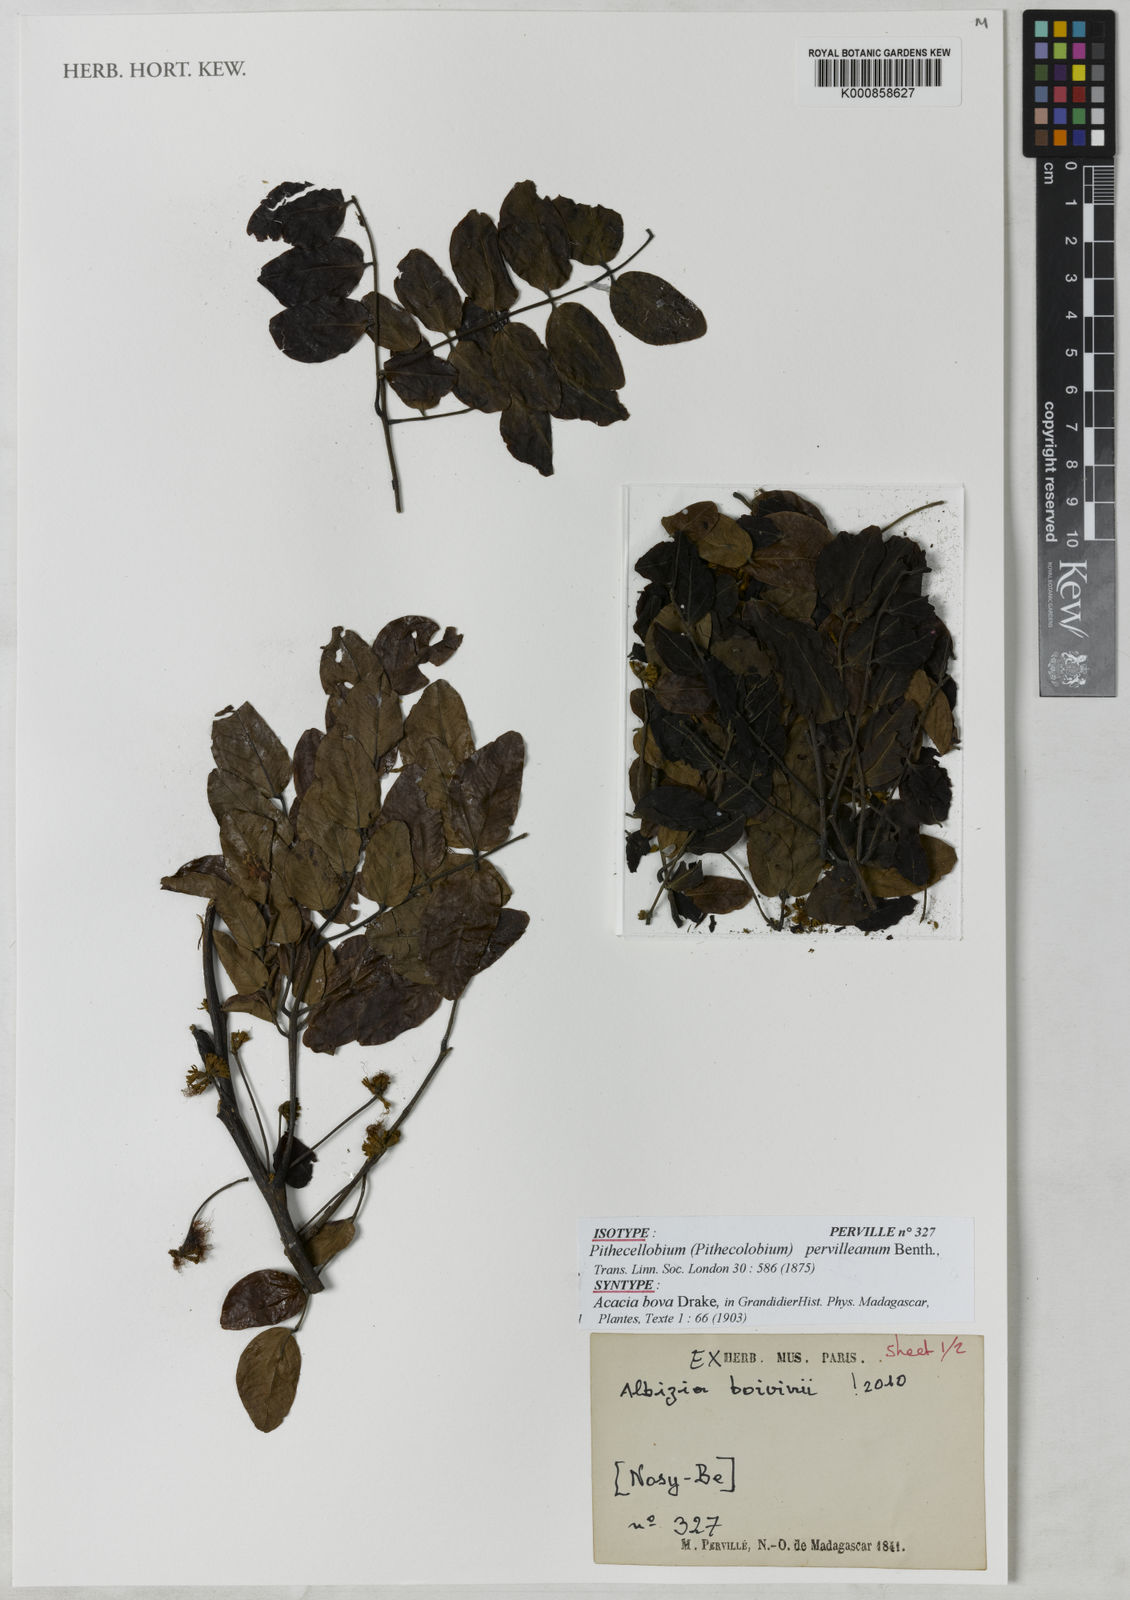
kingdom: Plantae
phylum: Tracheophyta
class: Magnoliopsida
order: Fabales
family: Fabaceae
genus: Albizia
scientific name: Albizia boivinii
